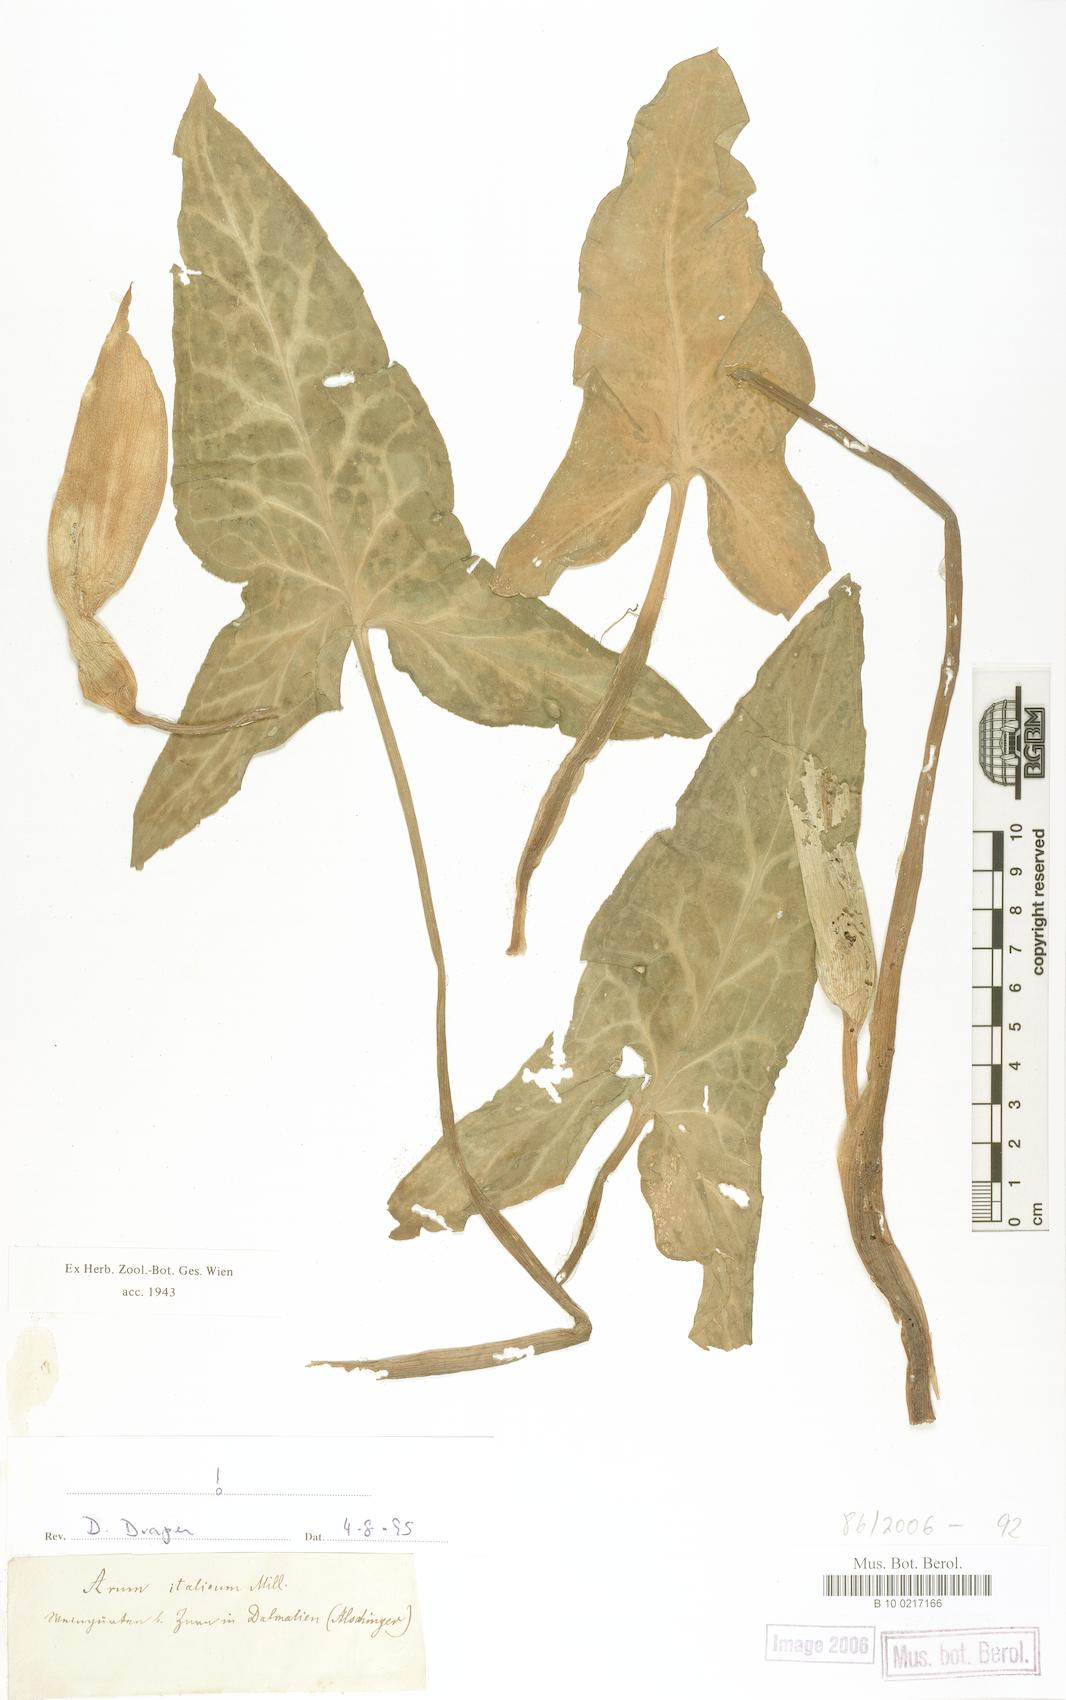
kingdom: Plantae
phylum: Tracheophyta
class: Liliopsida
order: Alismatales
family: Araceae
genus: Arum
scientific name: Arum italicum
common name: Italian lords-and-ladies
